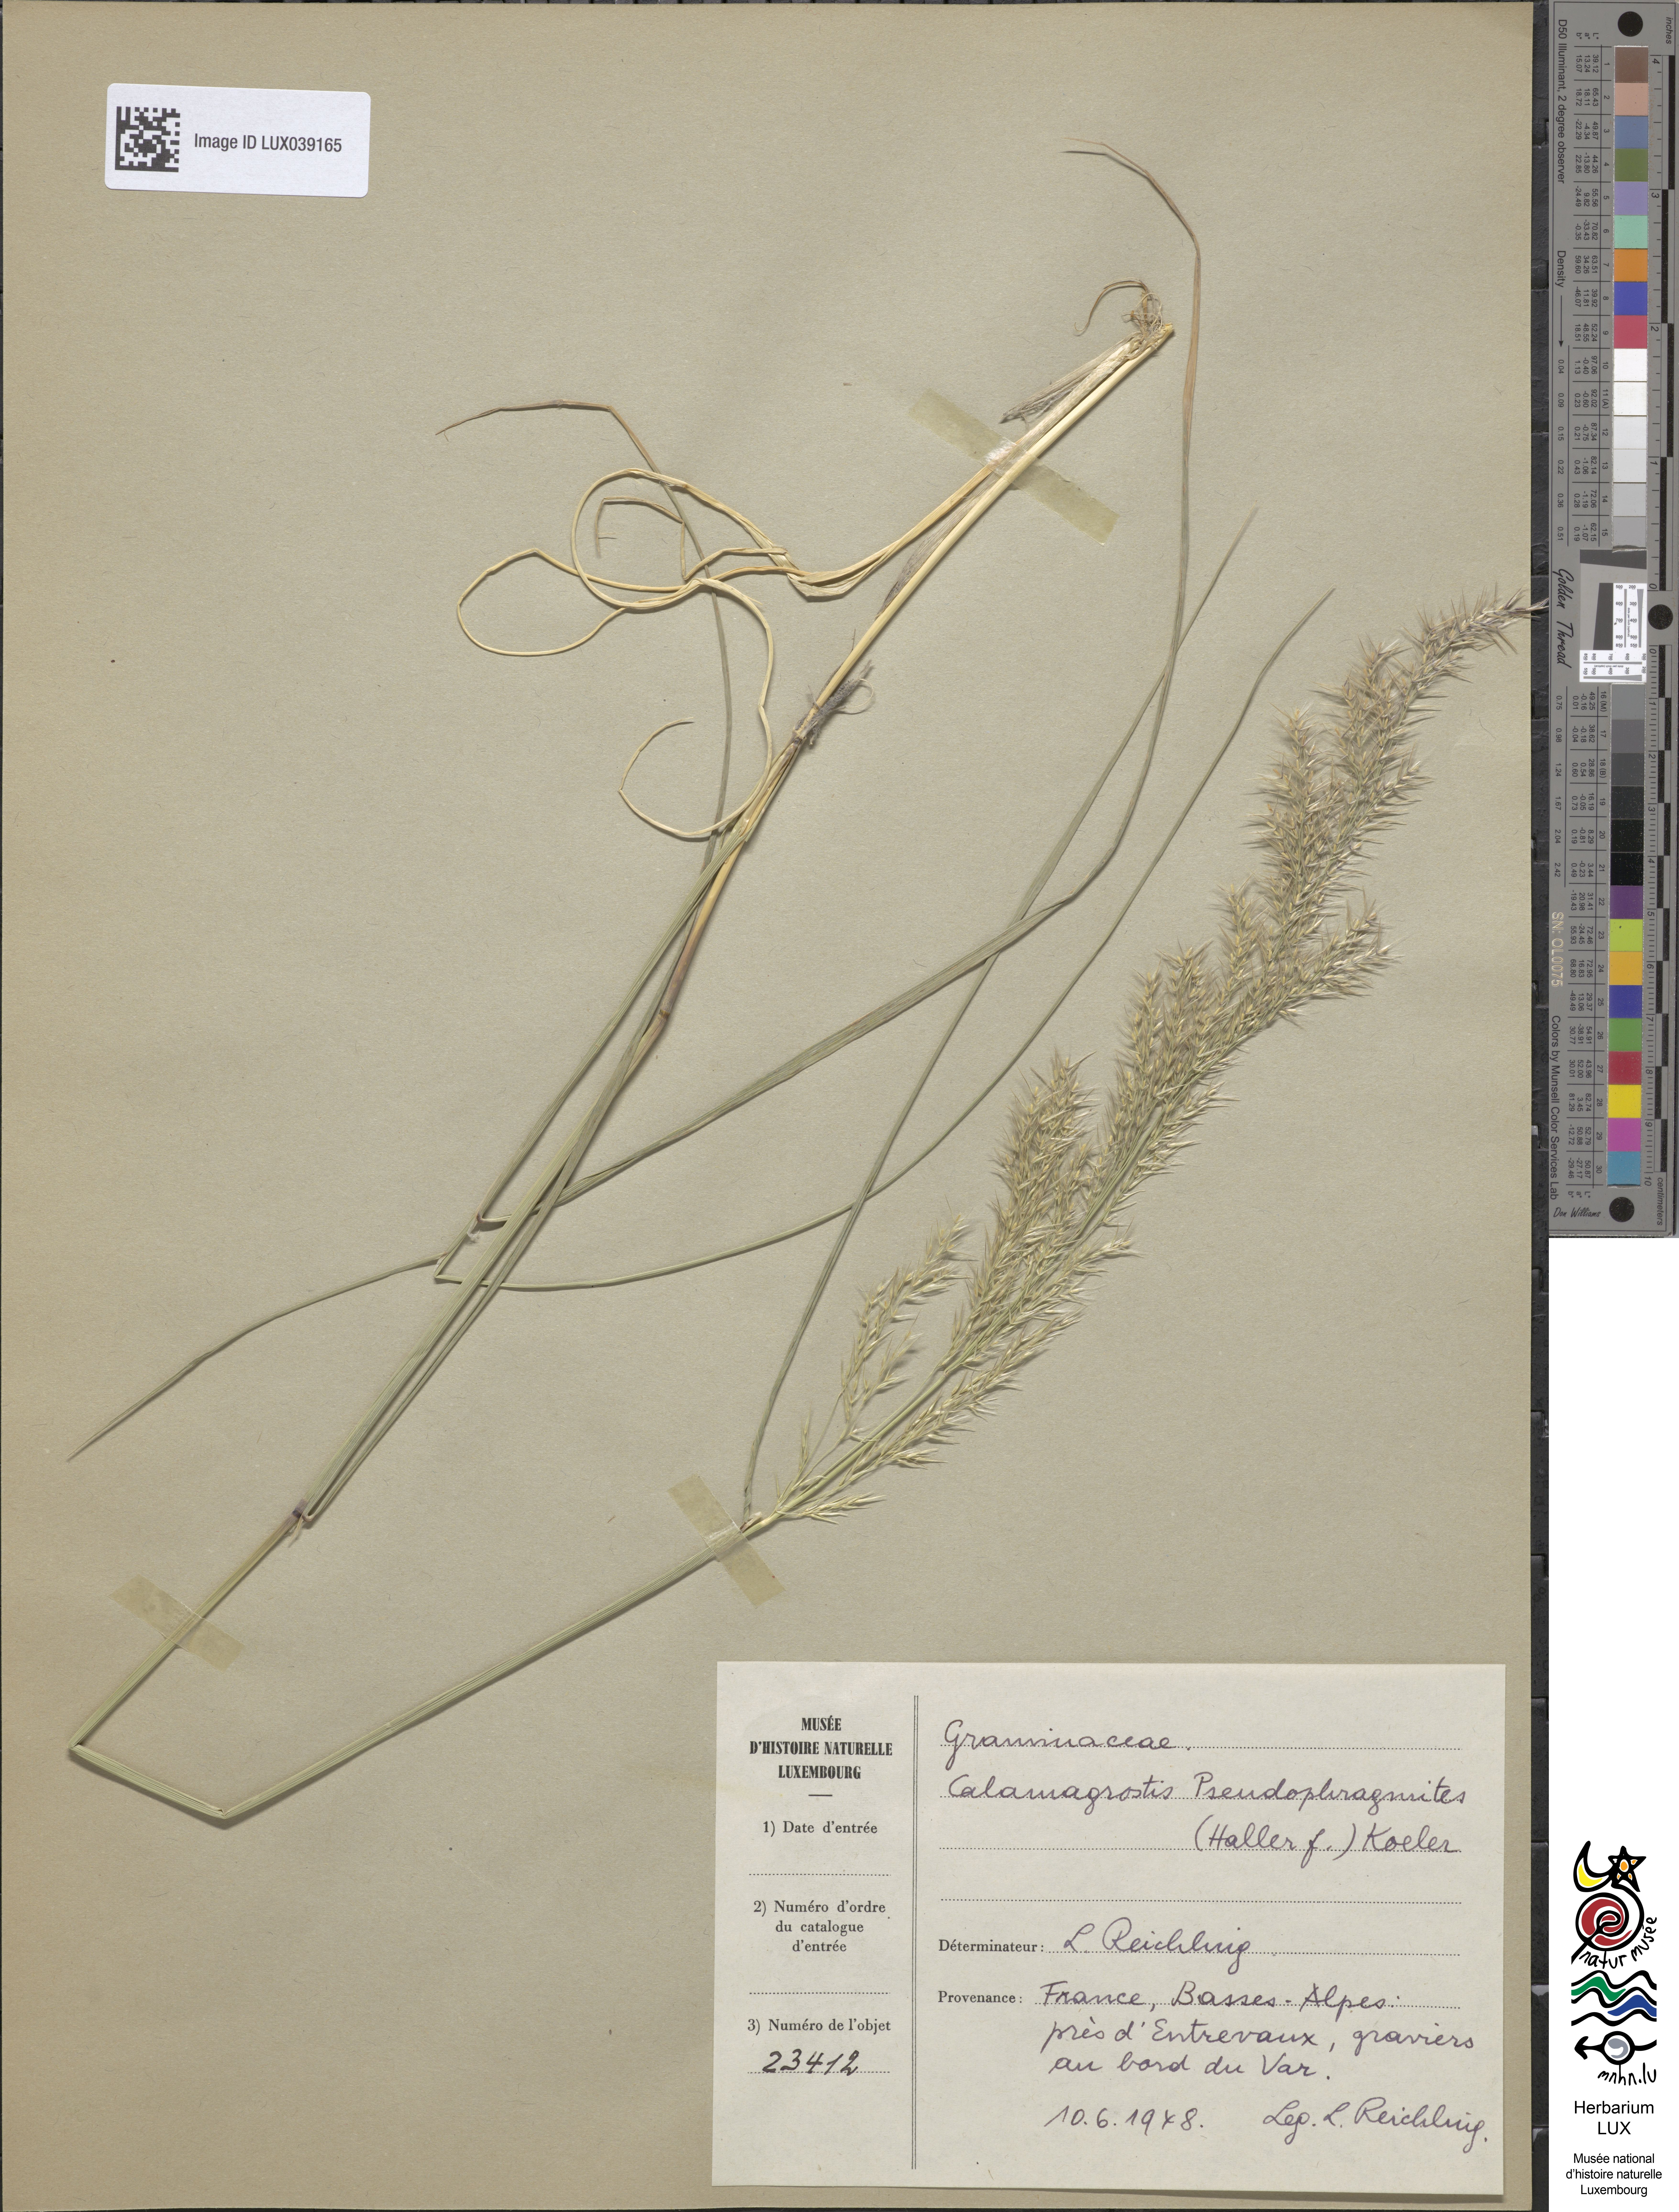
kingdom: Plantae
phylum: Tracheophyta
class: Liliopsida
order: Poales
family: Poaceae
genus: Calamagrostis
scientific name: Calamagrostis pseudophragmites
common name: Coastal small-reed
